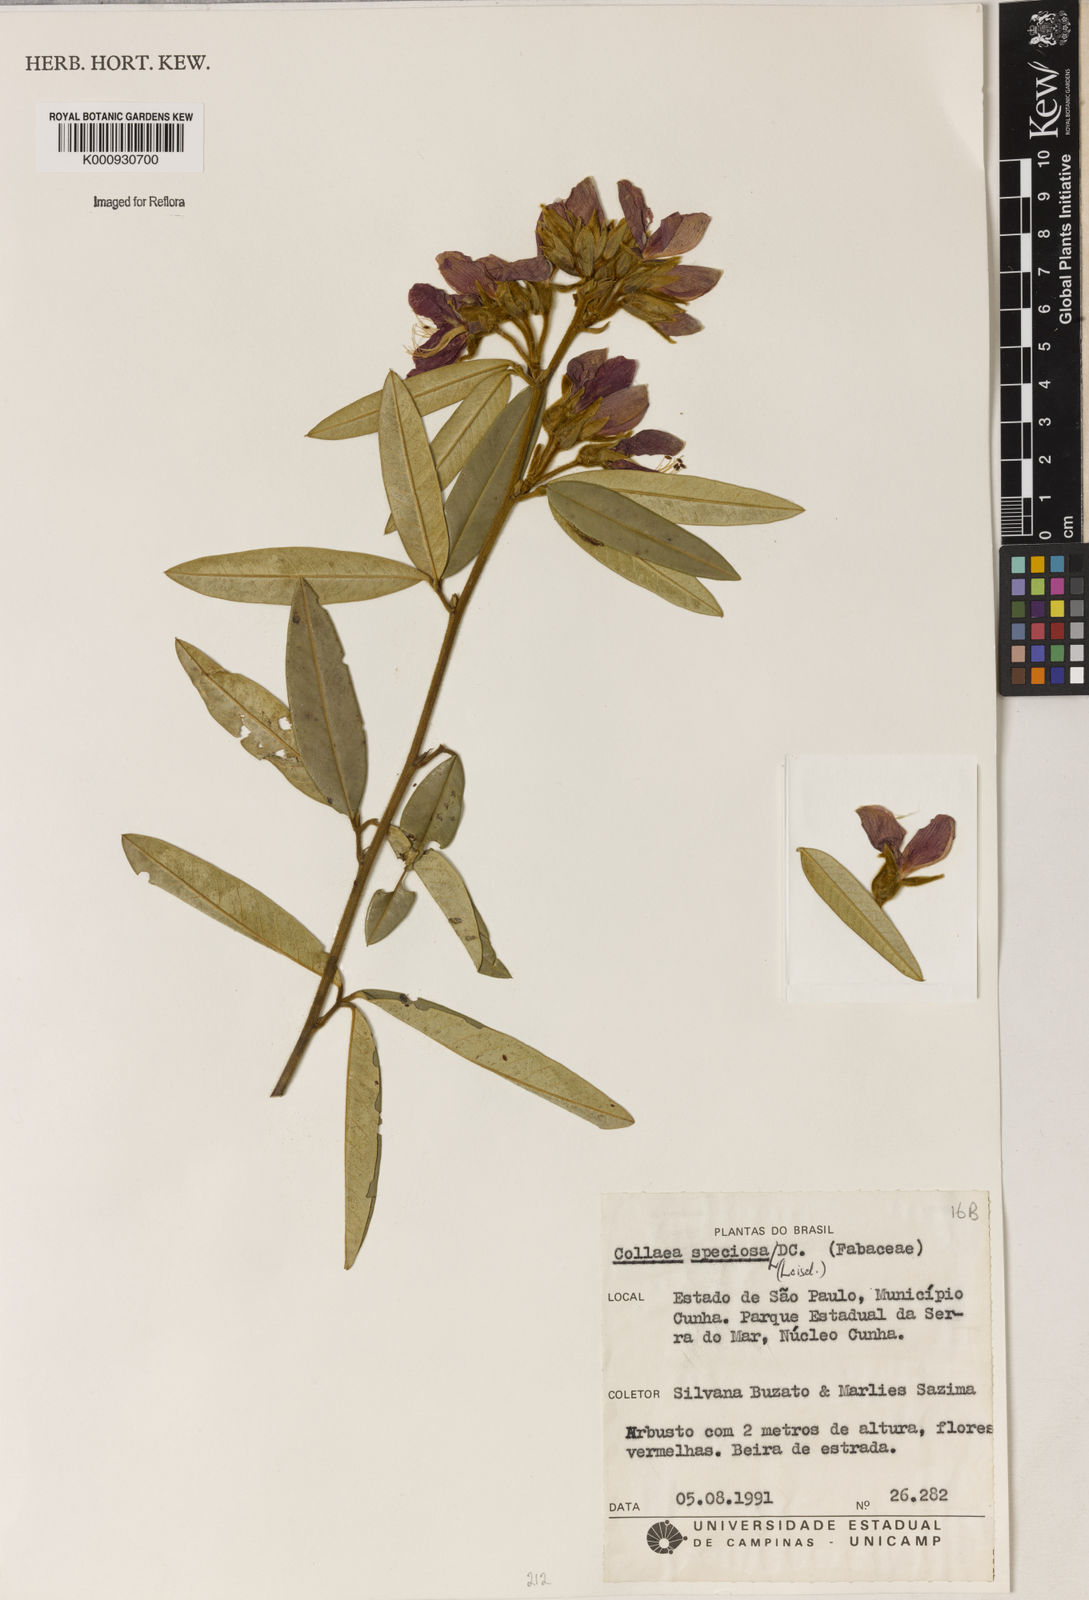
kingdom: Plantae
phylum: Tracheophyta
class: Magnoliopsida
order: Lamiales
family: Lamiaceae
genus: Coleus
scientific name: Coleus barbatus
